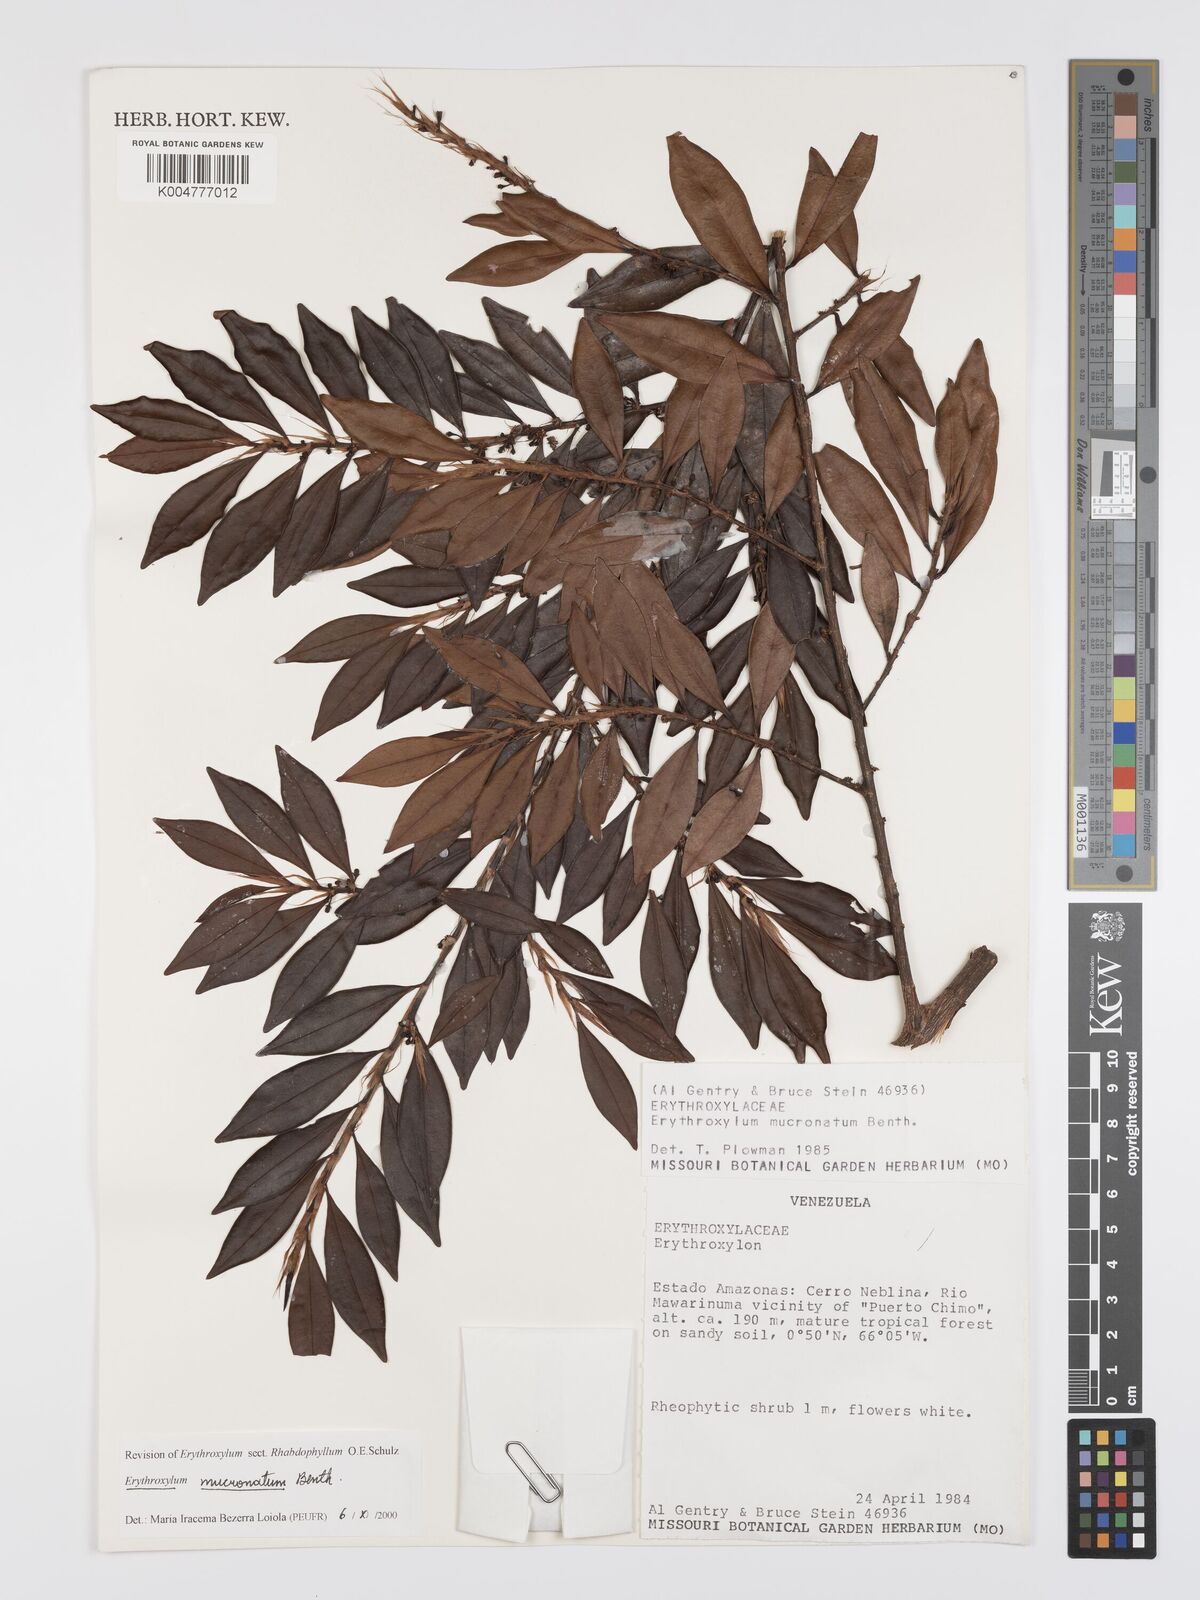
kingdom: Plantae
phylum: Tracheophyta
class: Magnoliopsida
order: Malpighiales
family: Erythroxylaceae
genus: Erythroxylum
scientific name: Erythroxylum mucronatum
